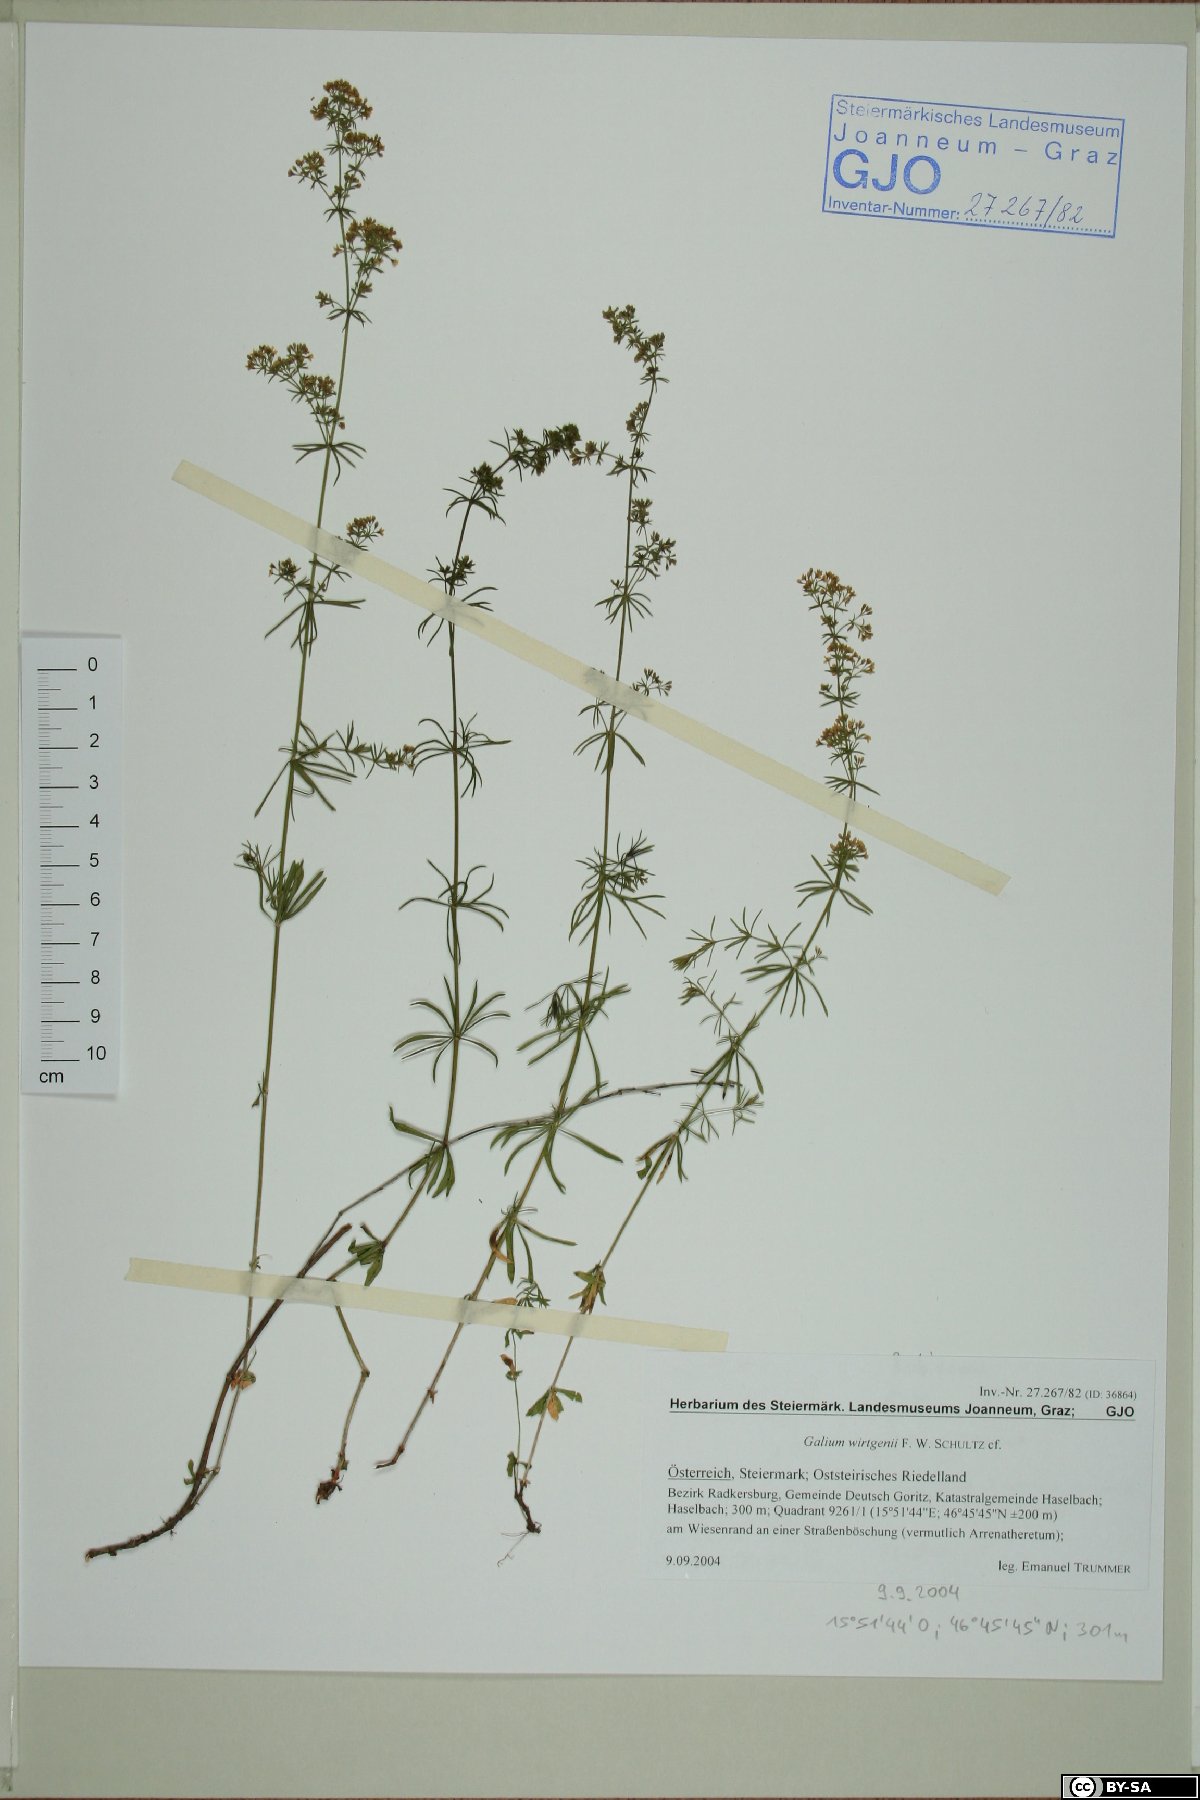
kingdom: Plantae
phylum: Tracheophyta
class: Magnoliopsida
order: Gentianales
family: Rubiaceae
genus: Galium
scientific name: Galium verum
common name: Lady's bedstraw
